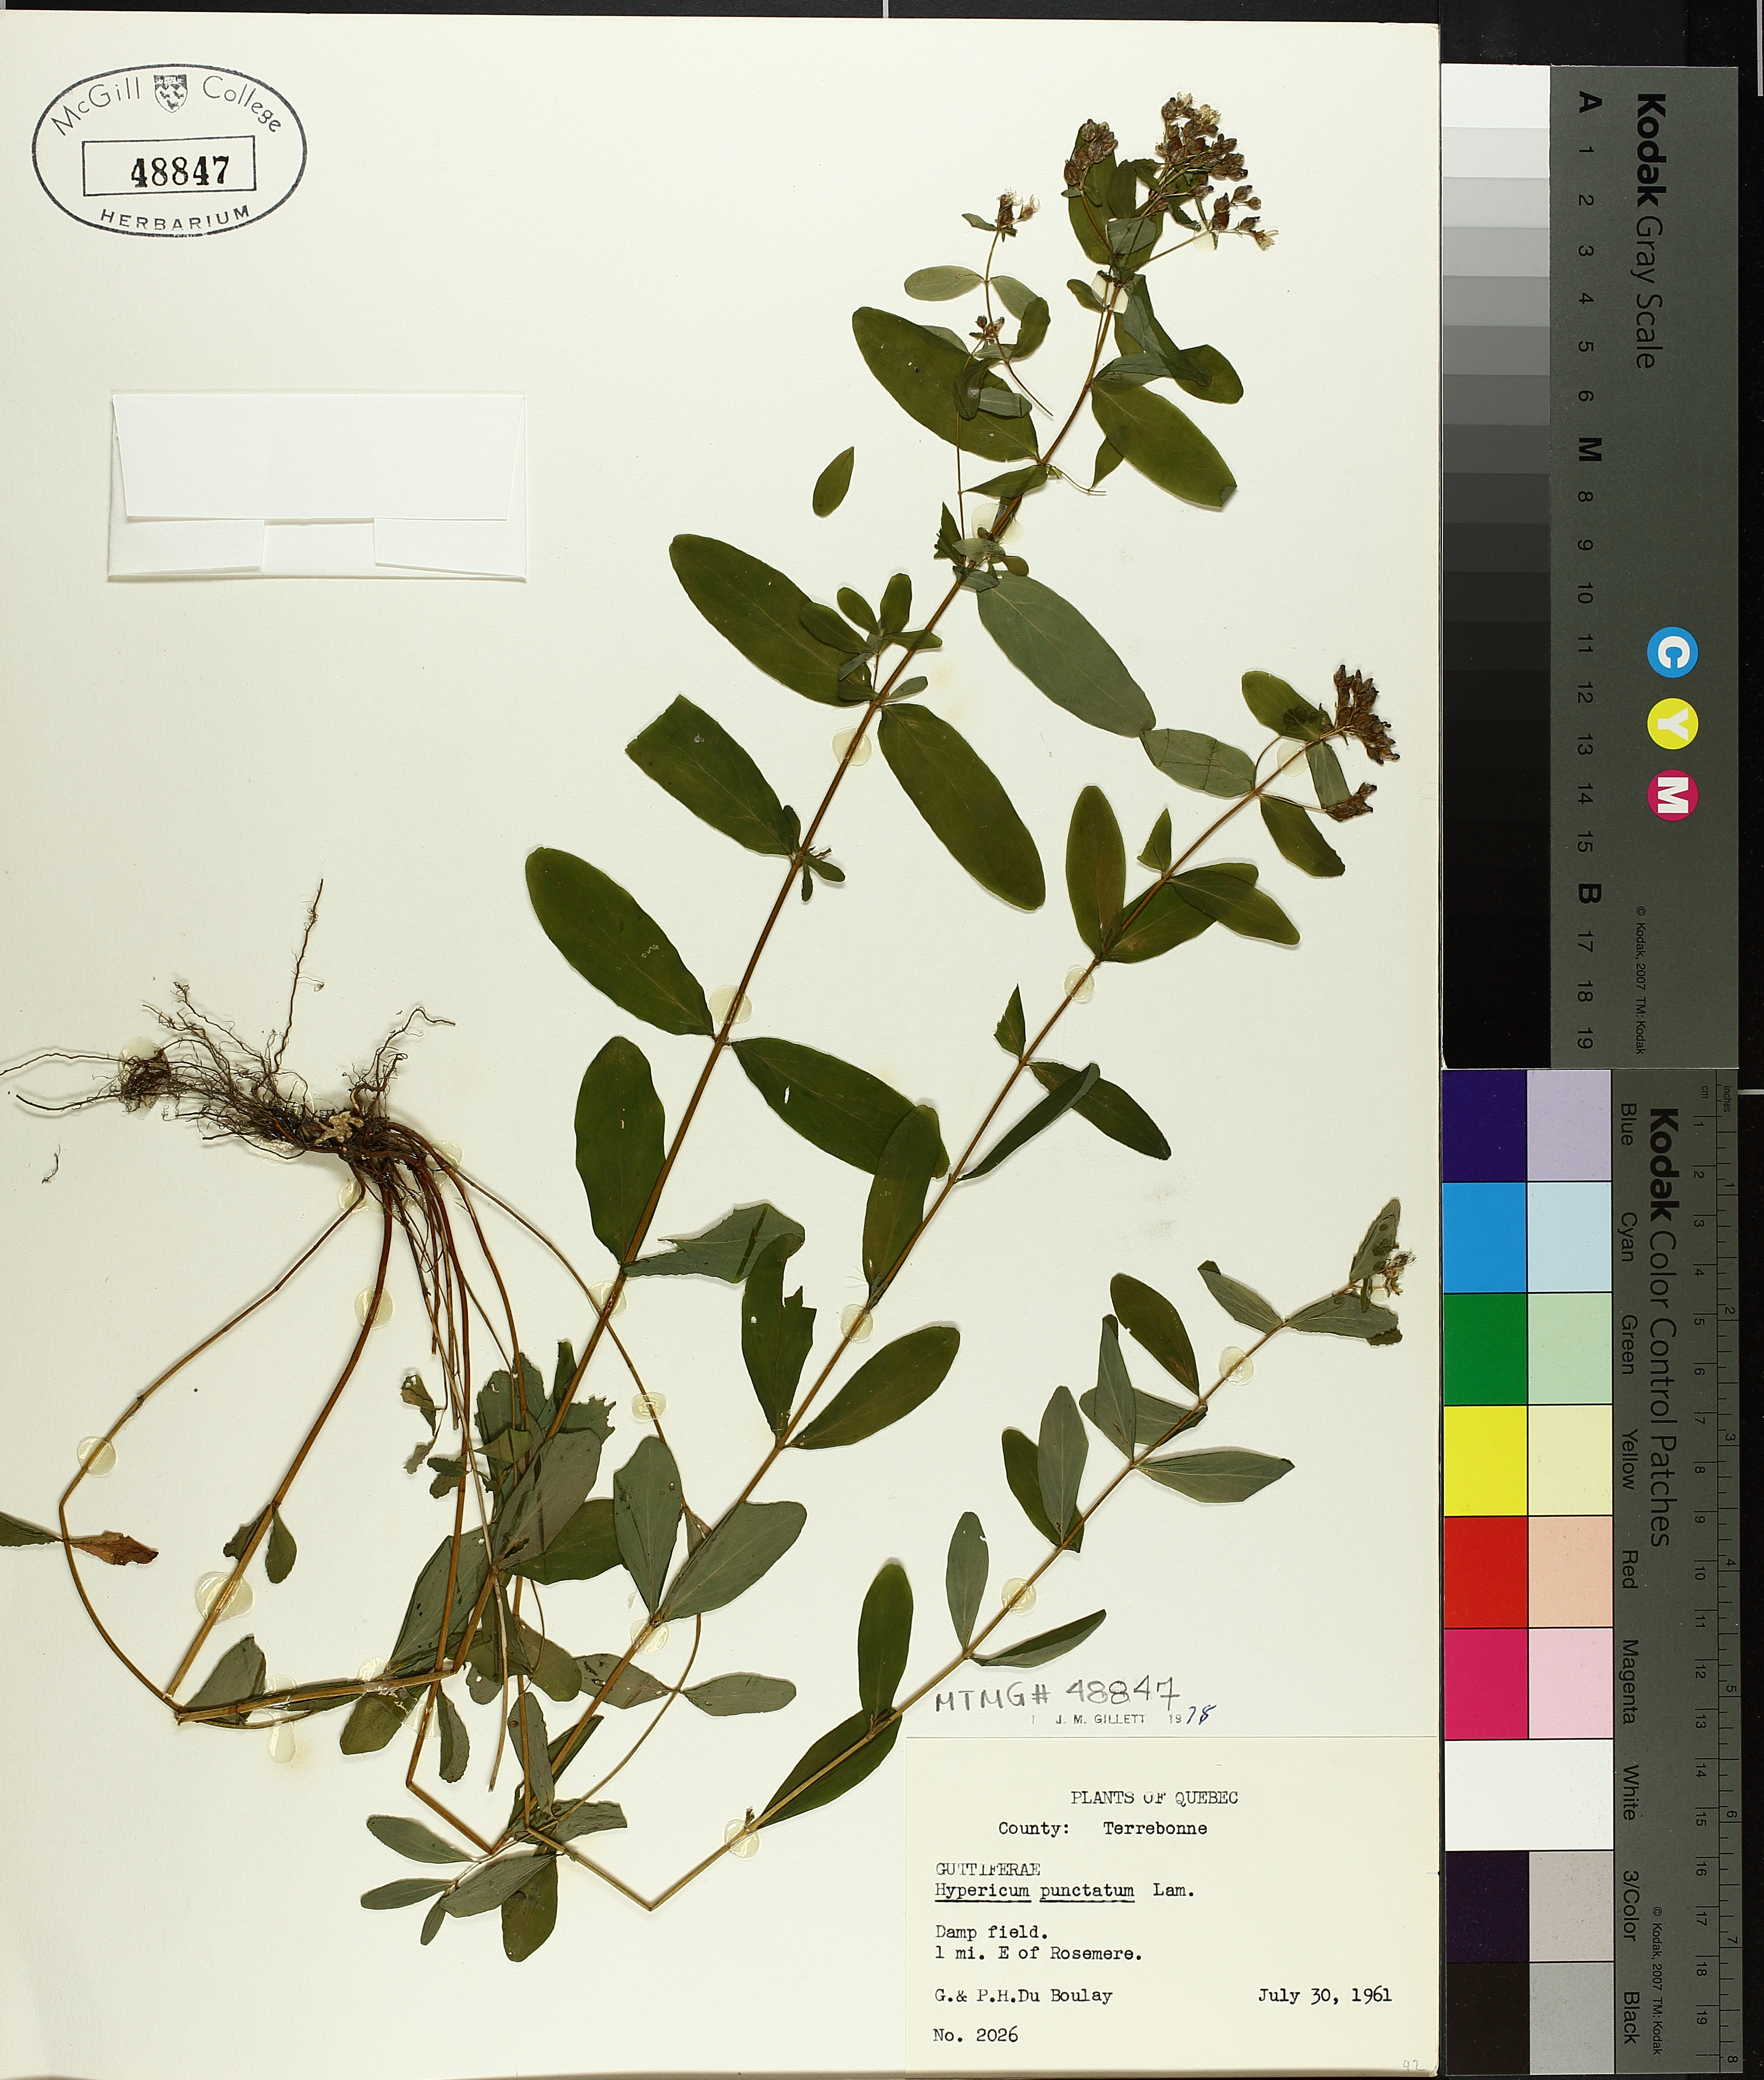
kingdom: Plantae
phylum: Tracheophyta
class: Magnoliopsida
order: Malpighiales
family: Hypericaceae
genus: Hypericum
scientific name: Hypericum punctatum
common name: Spotted st. john's-wort
